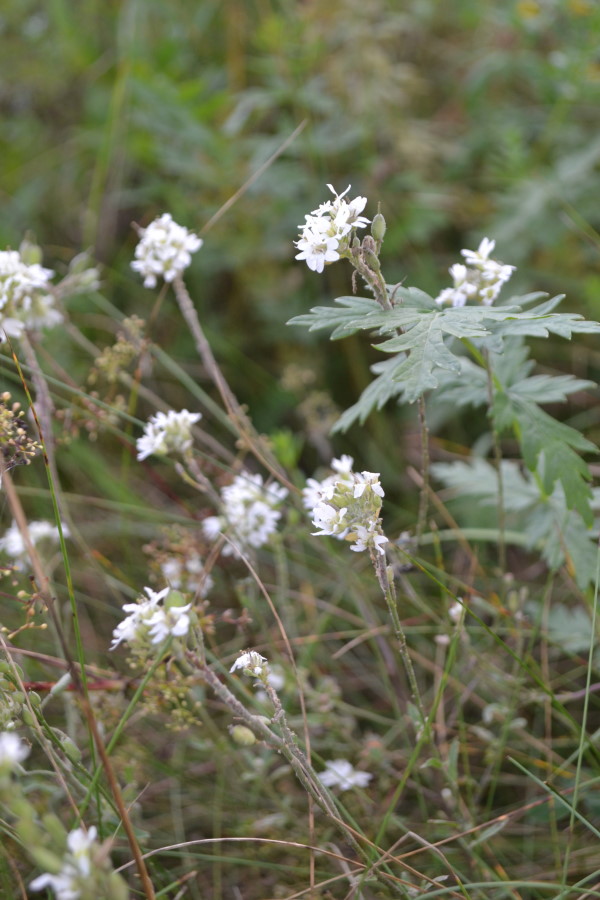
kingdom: Plantae
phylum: Tracheophyta
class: Magnoliopsida
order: Brassicales
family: Brassicaceae
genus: Berteroa
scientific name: Berteroa incana
